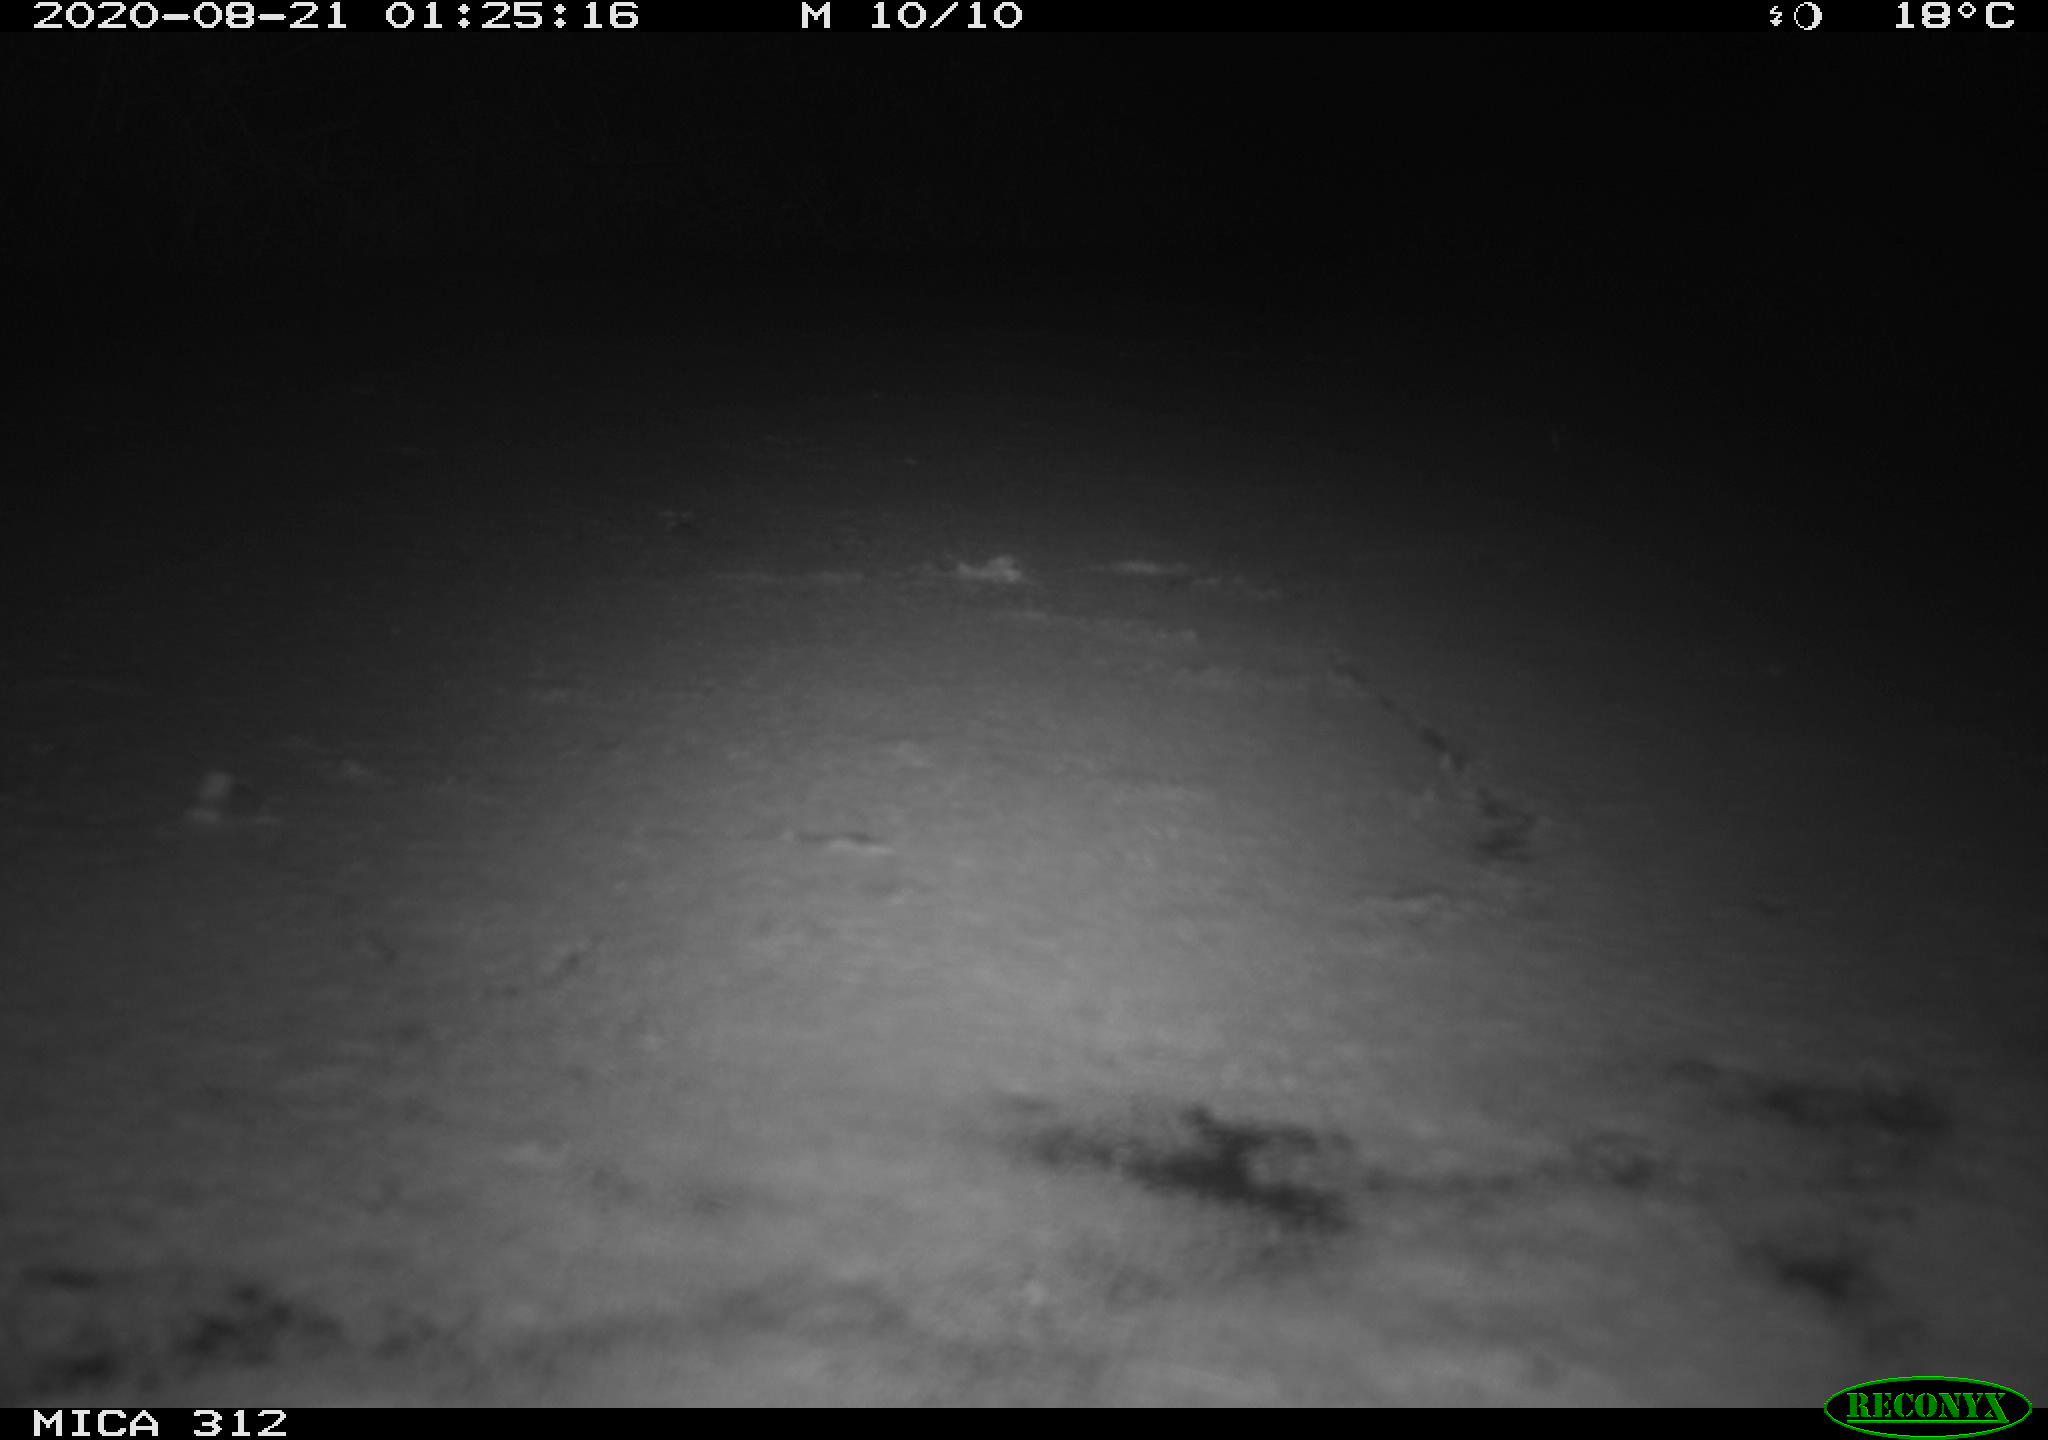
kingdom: Animalia
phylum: Chordata
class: Mammalia
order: Rodentia
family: Cricetidae
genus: Ondatra
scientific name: Ondatra zibethicus
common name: Muskrat
